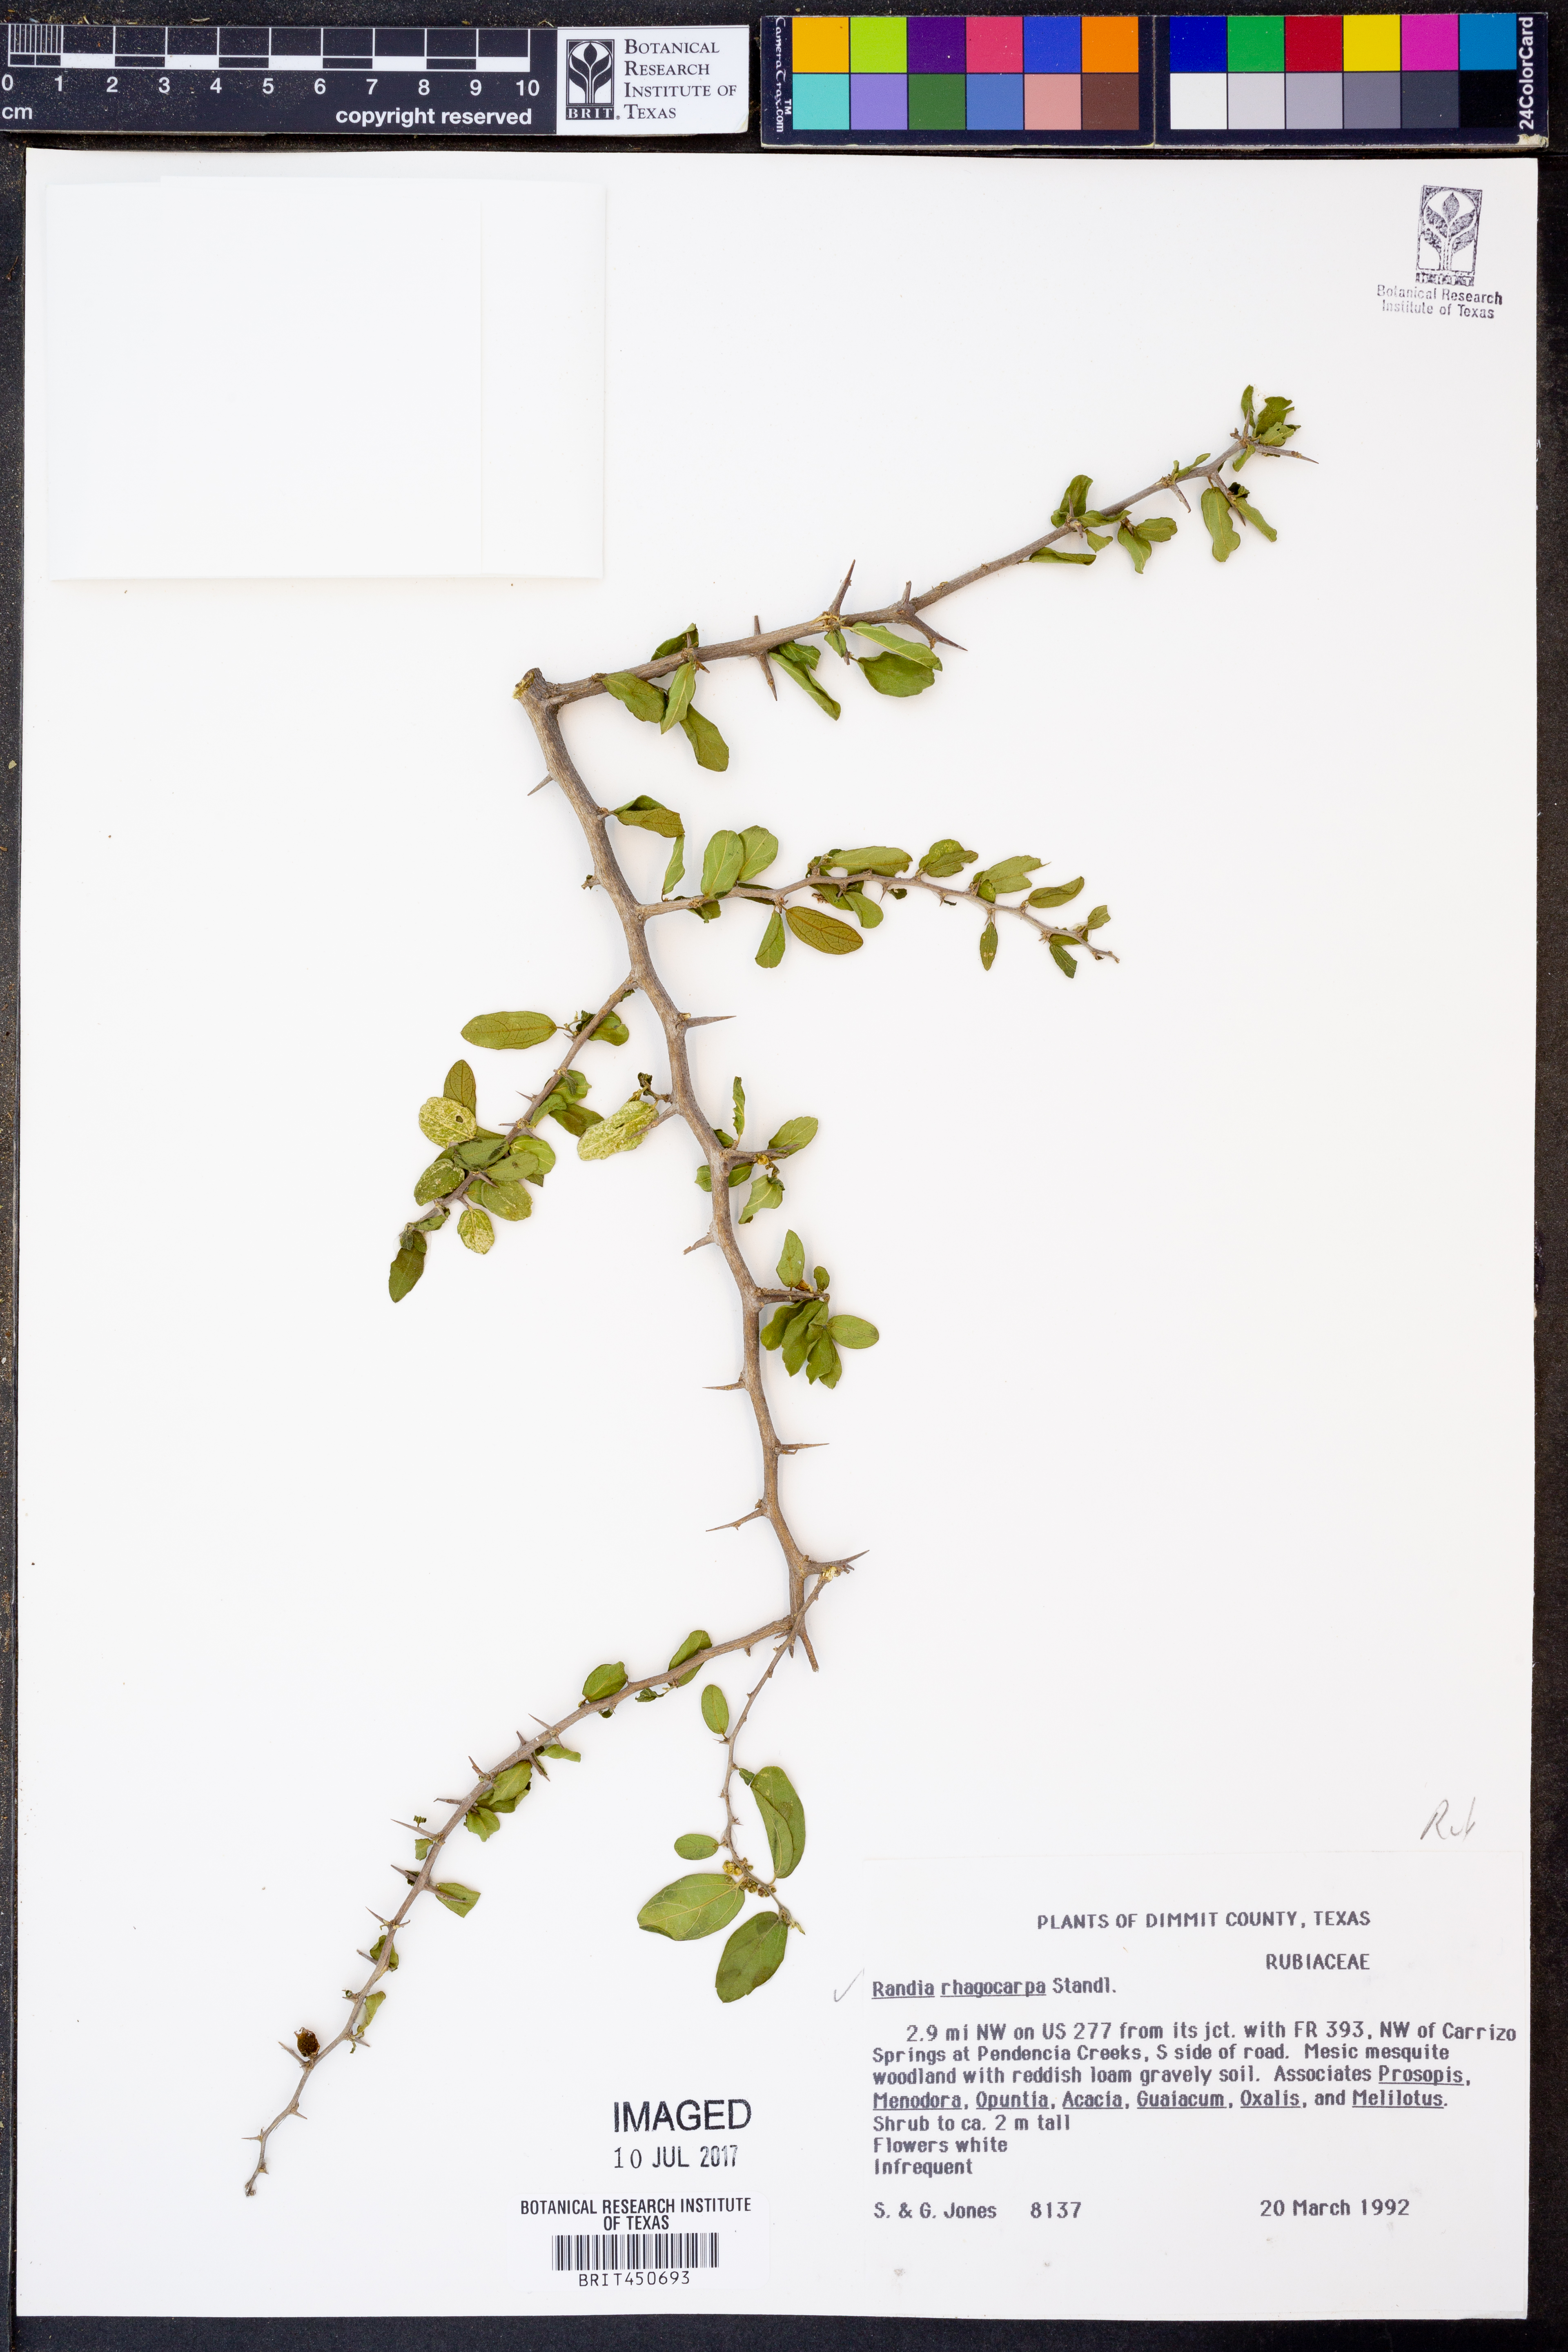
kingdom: Plantae
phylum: Tracheophyta
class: Magnoliopsida
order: Gentianales
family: Rubiaceae
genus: Randia
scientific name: Randia obcordata
